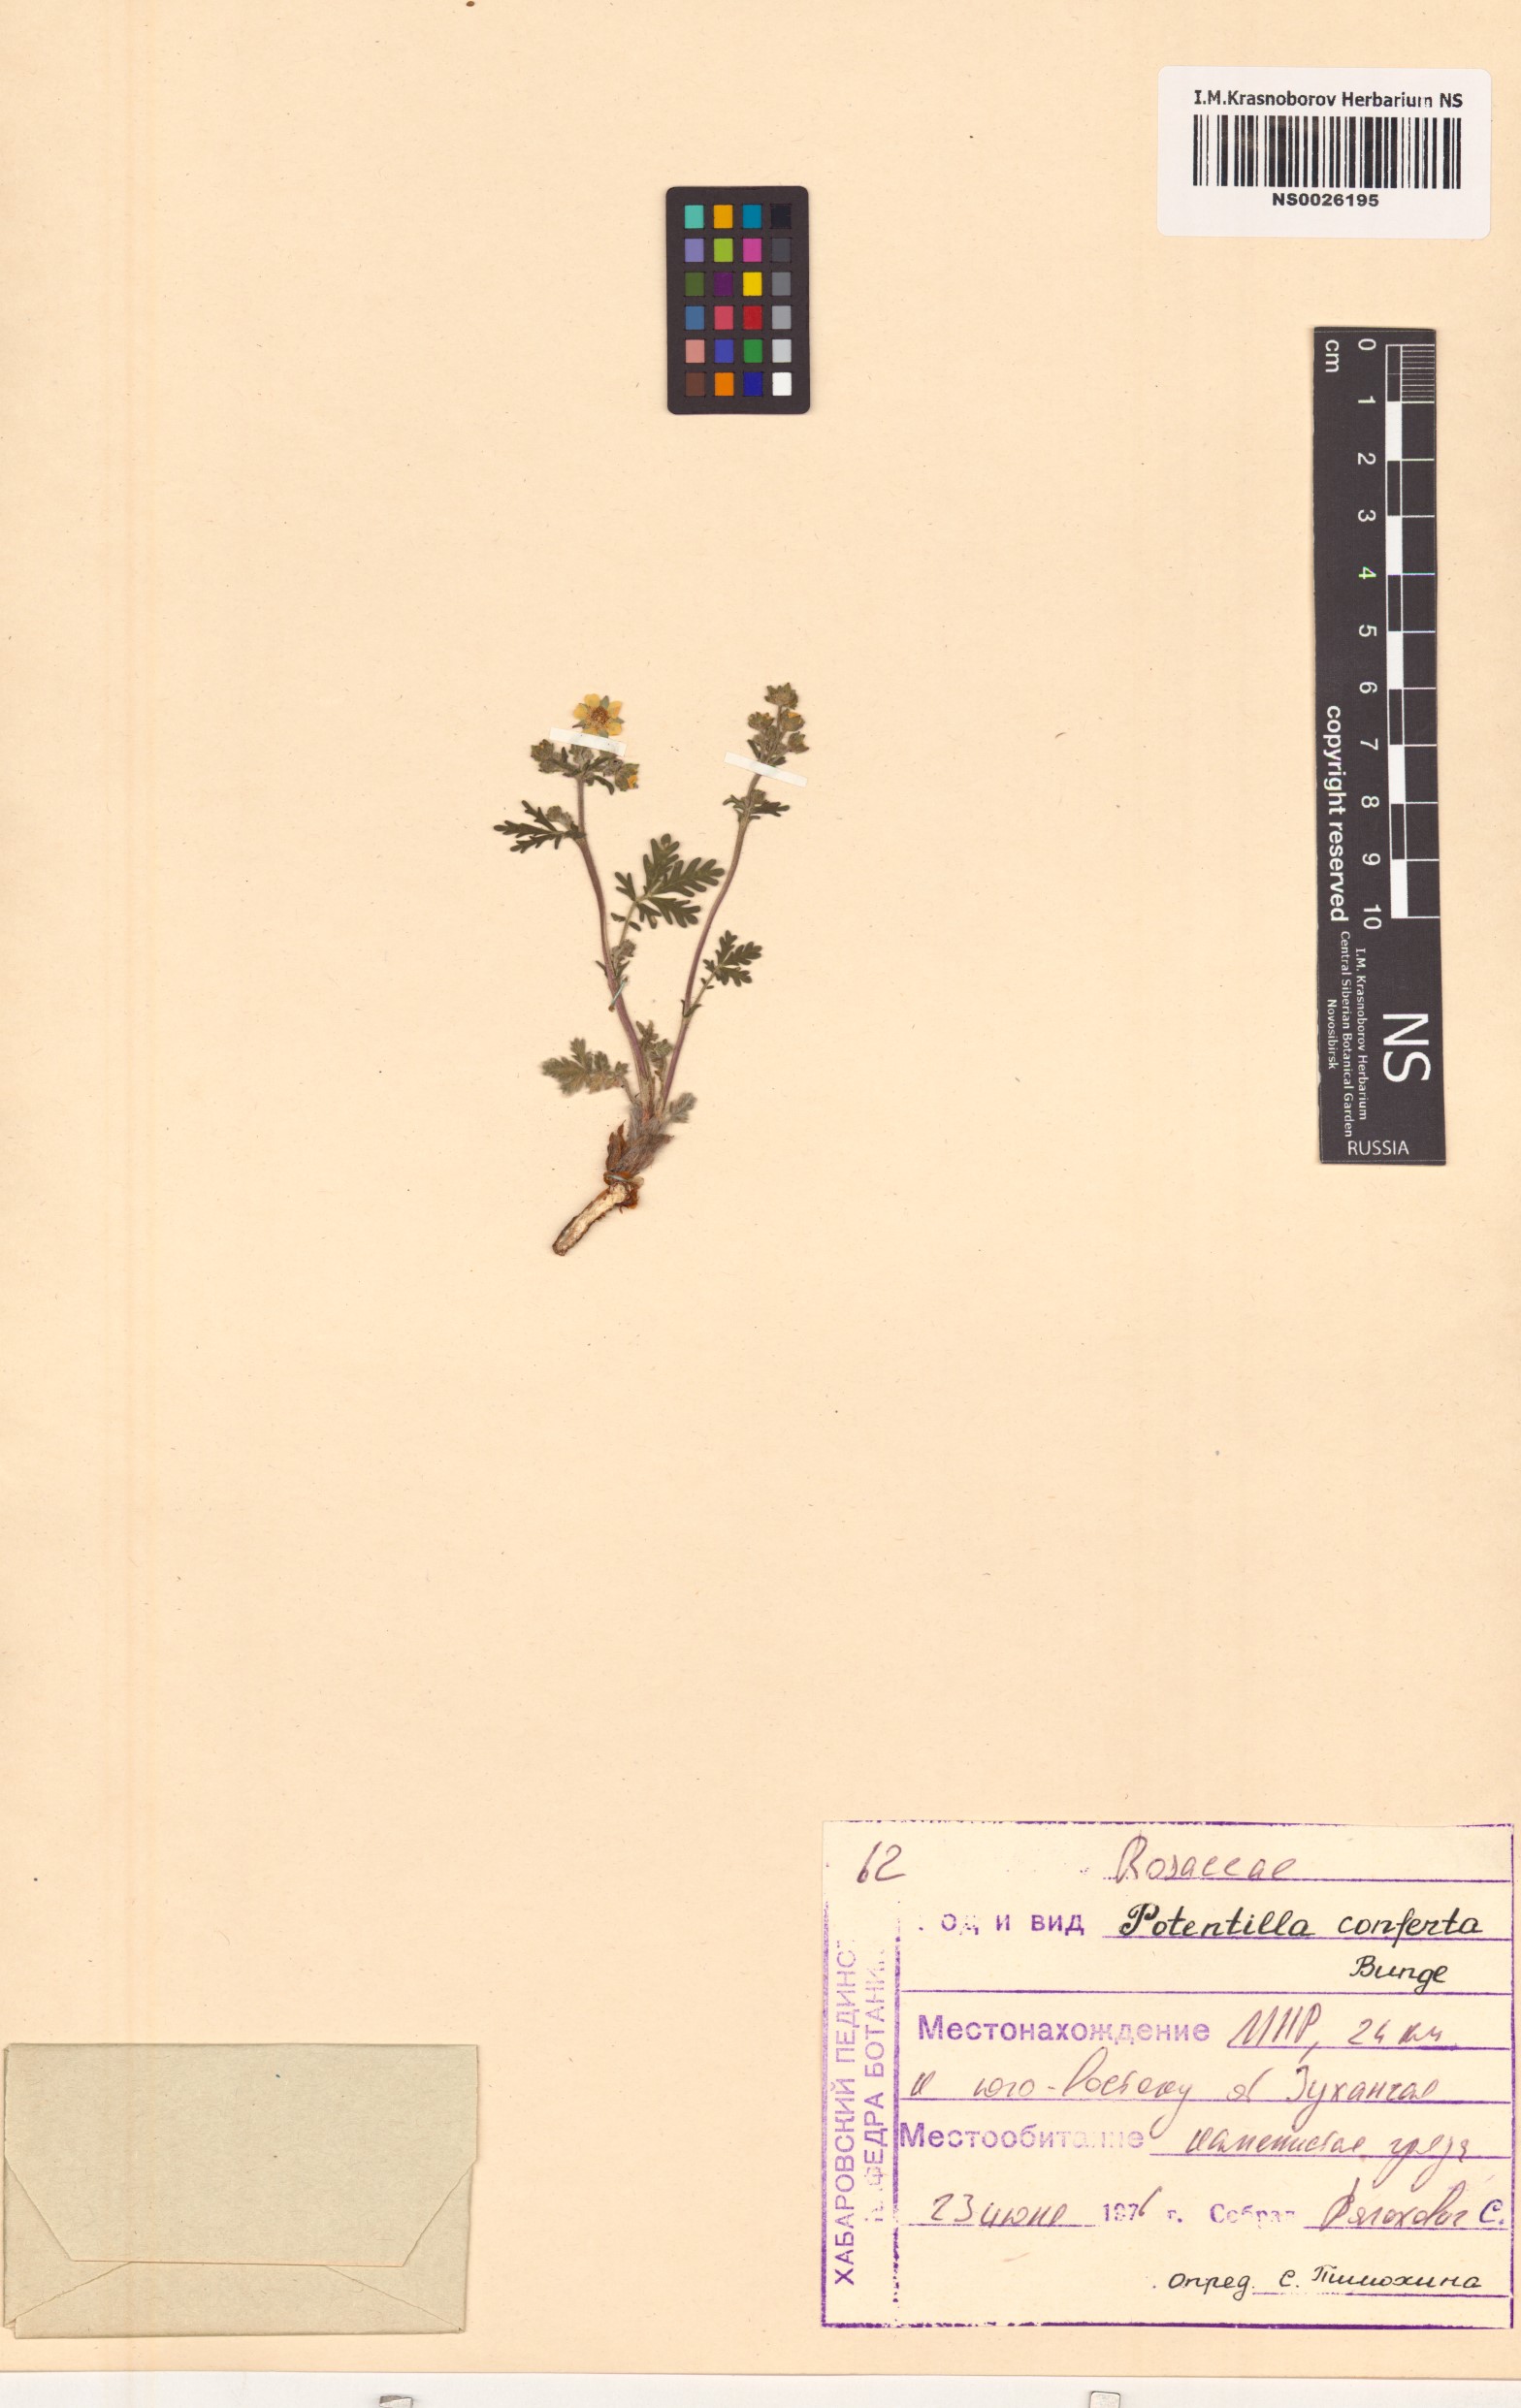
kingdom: Plantae
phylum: Tracheophyta
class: Magnoliopsida
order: Rosales
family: Rosaceae
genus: Potentilla
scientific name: Potentilla conferta
